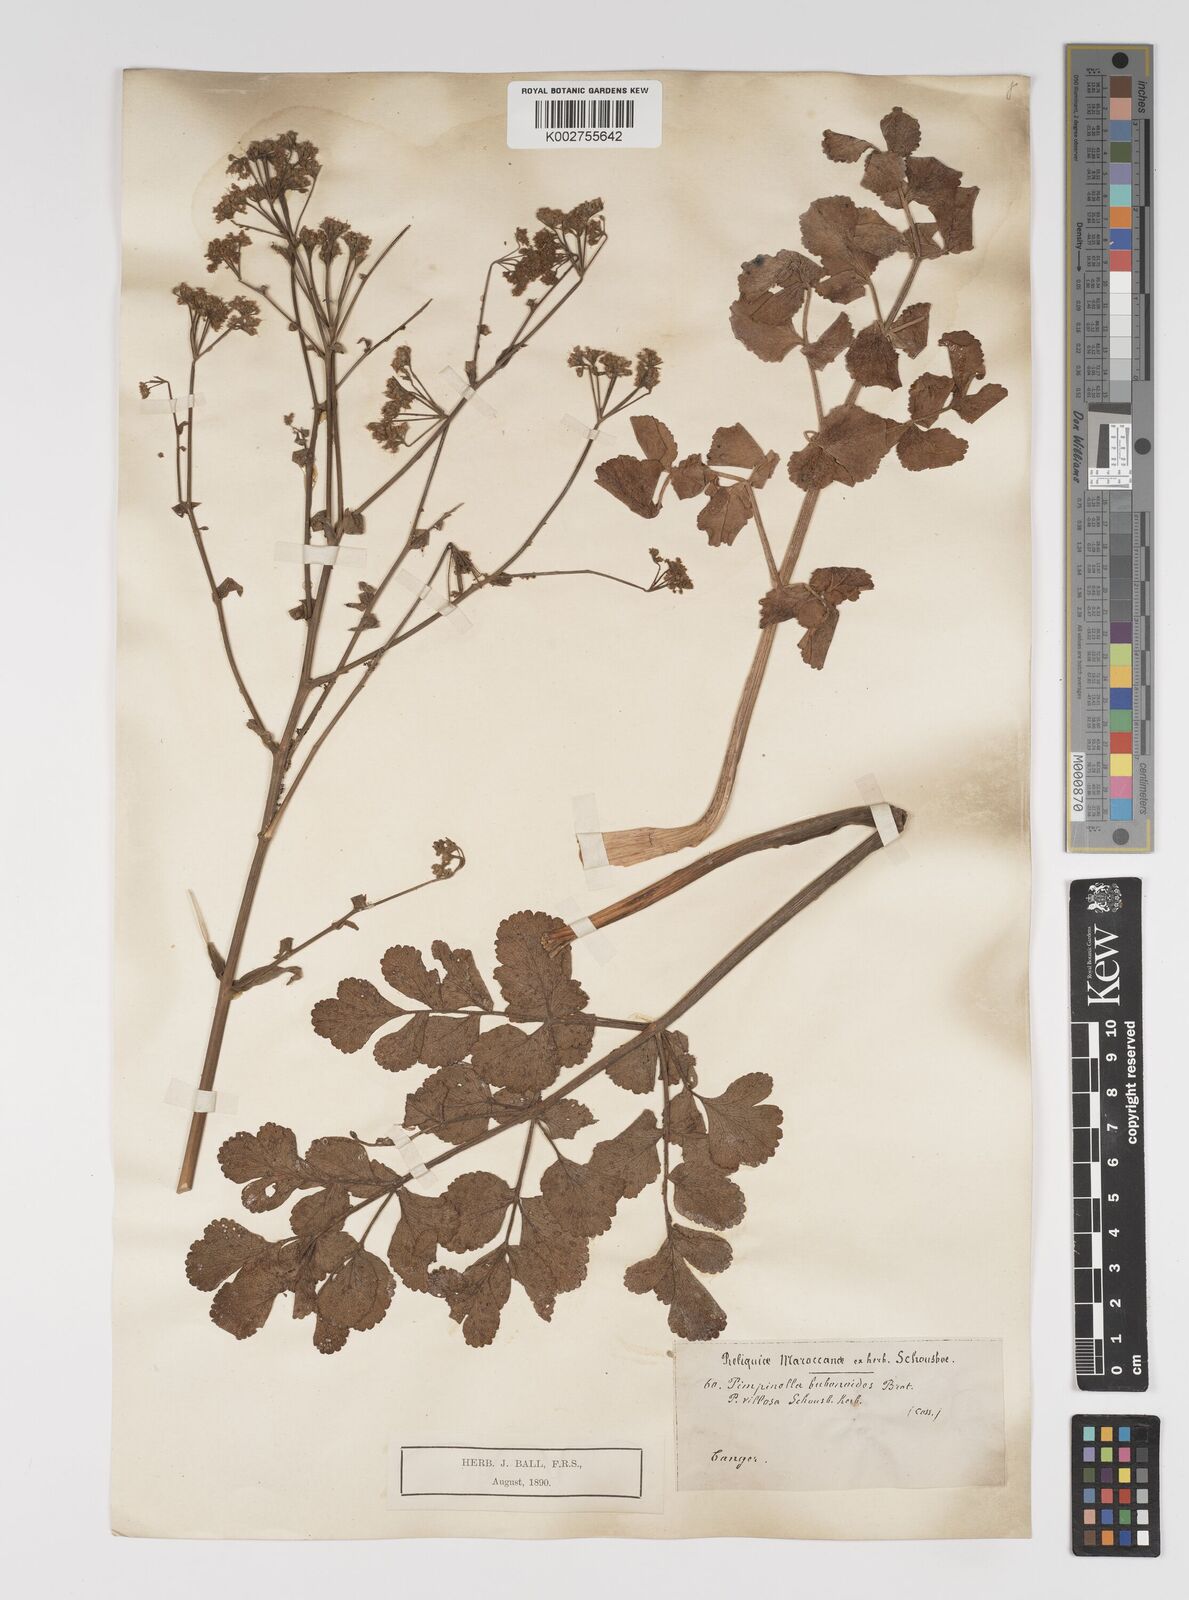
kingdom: Plantae
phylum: Tracheophyta
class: Magnoliopsida
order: Apiales
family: Apiaceae
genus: Pimpinella
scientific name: Pimpinella villosa
